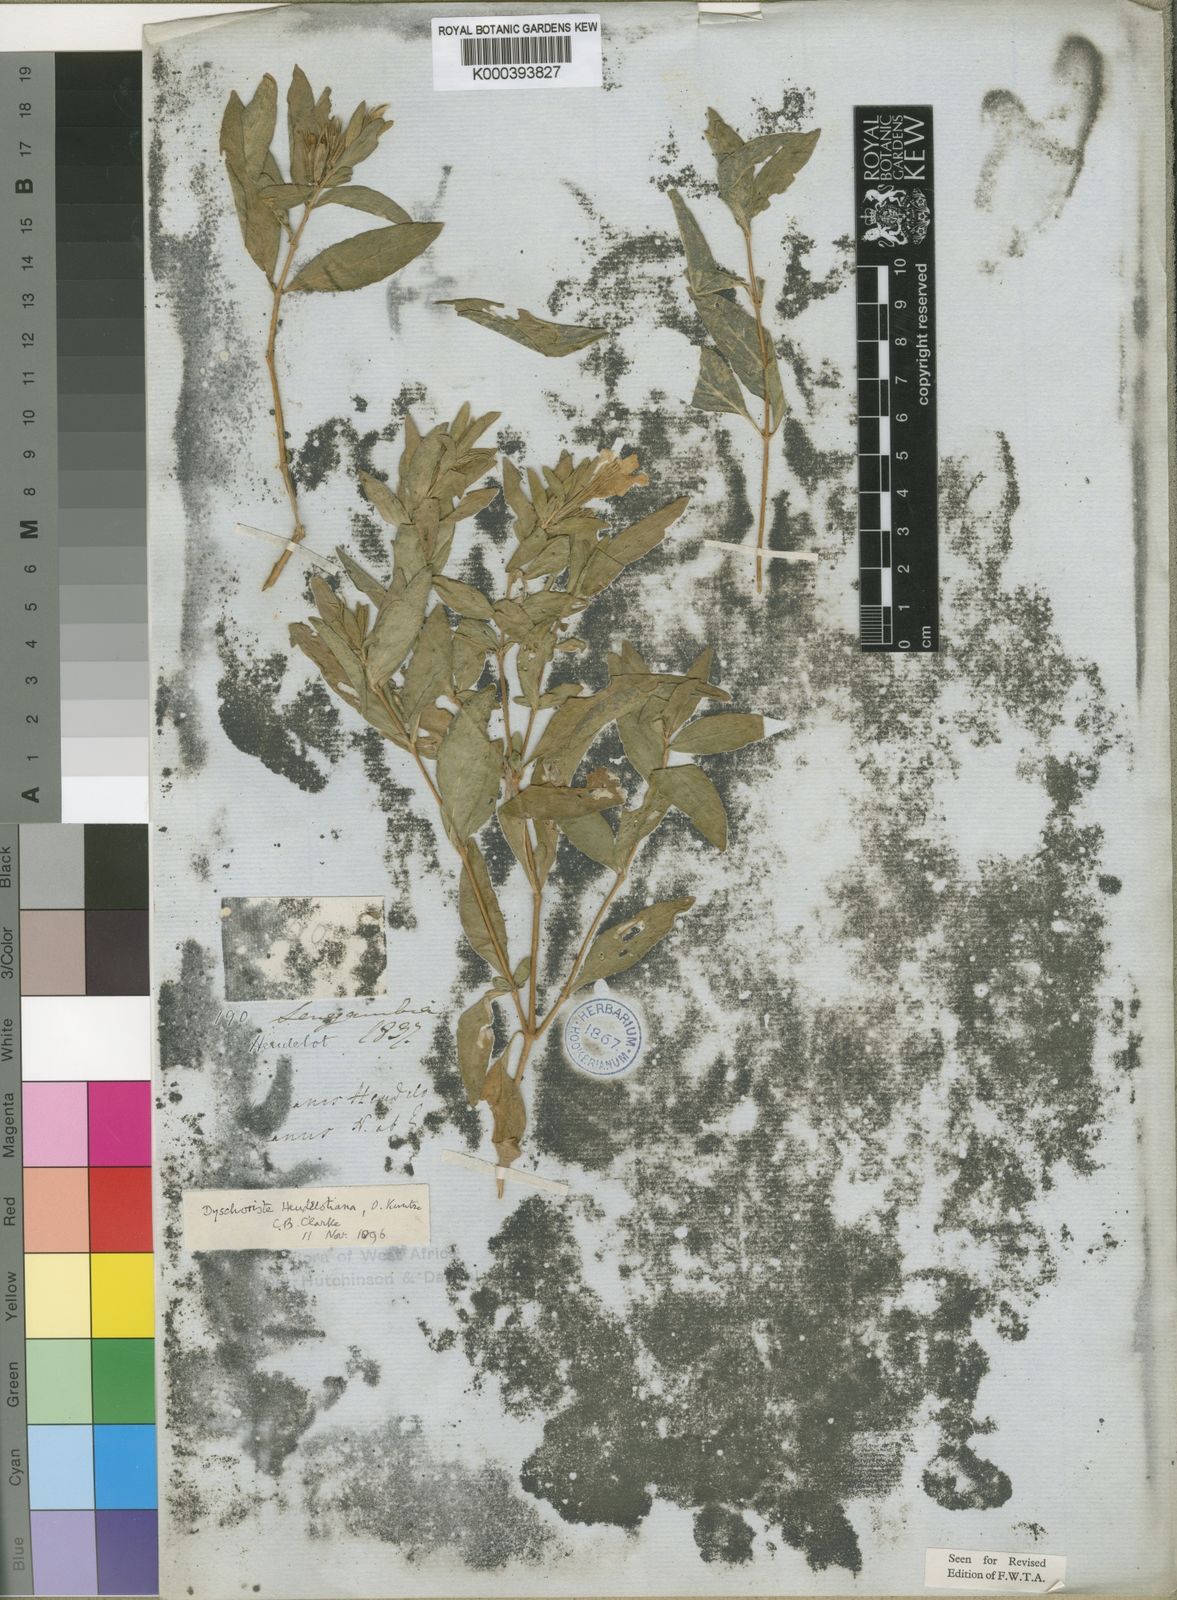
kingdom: Plantae
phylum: Tracheophyta
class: Magnoliopsida
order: Lamiales
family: Acanthaceae
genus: Dyschoriste
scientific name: Dyschoriste heudelotiana
